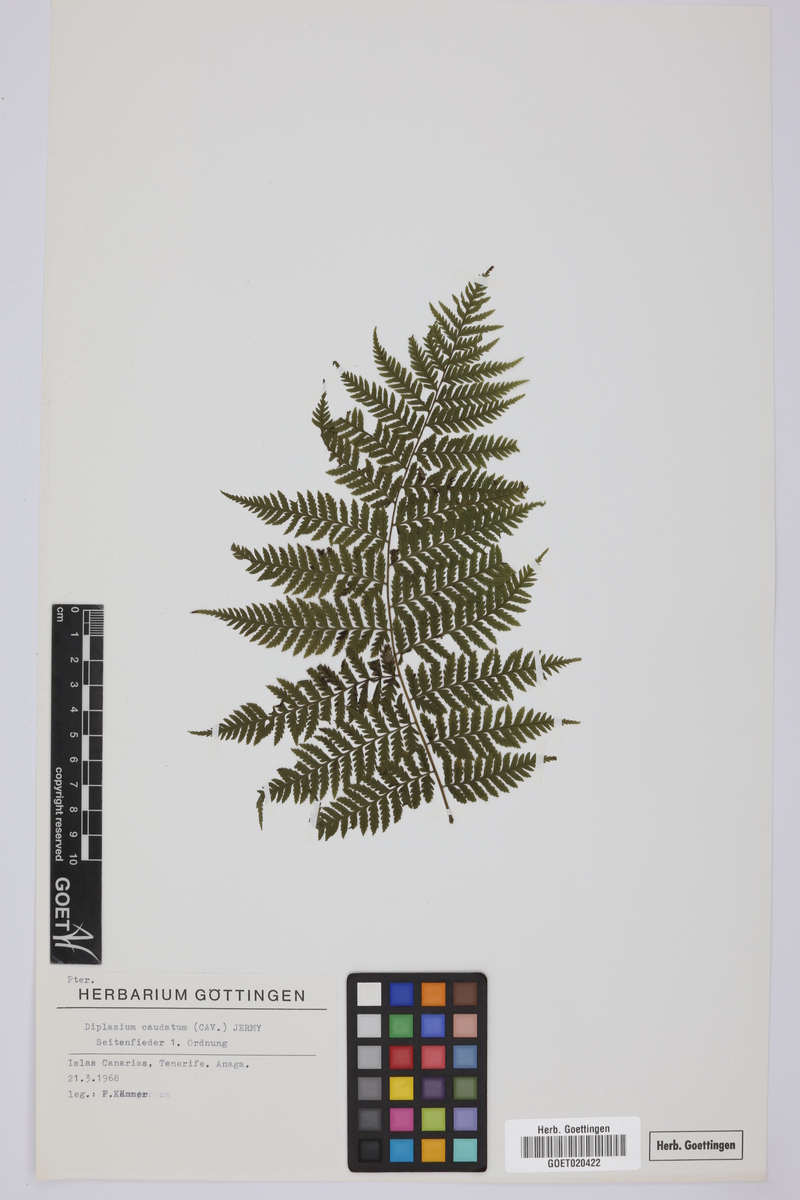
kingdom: Plantae
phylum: Tracheophyta
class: Polypodiopsida
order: Polypodiales
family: Athyriaceae
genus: Diplazium
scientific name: Diplazium caudatum
